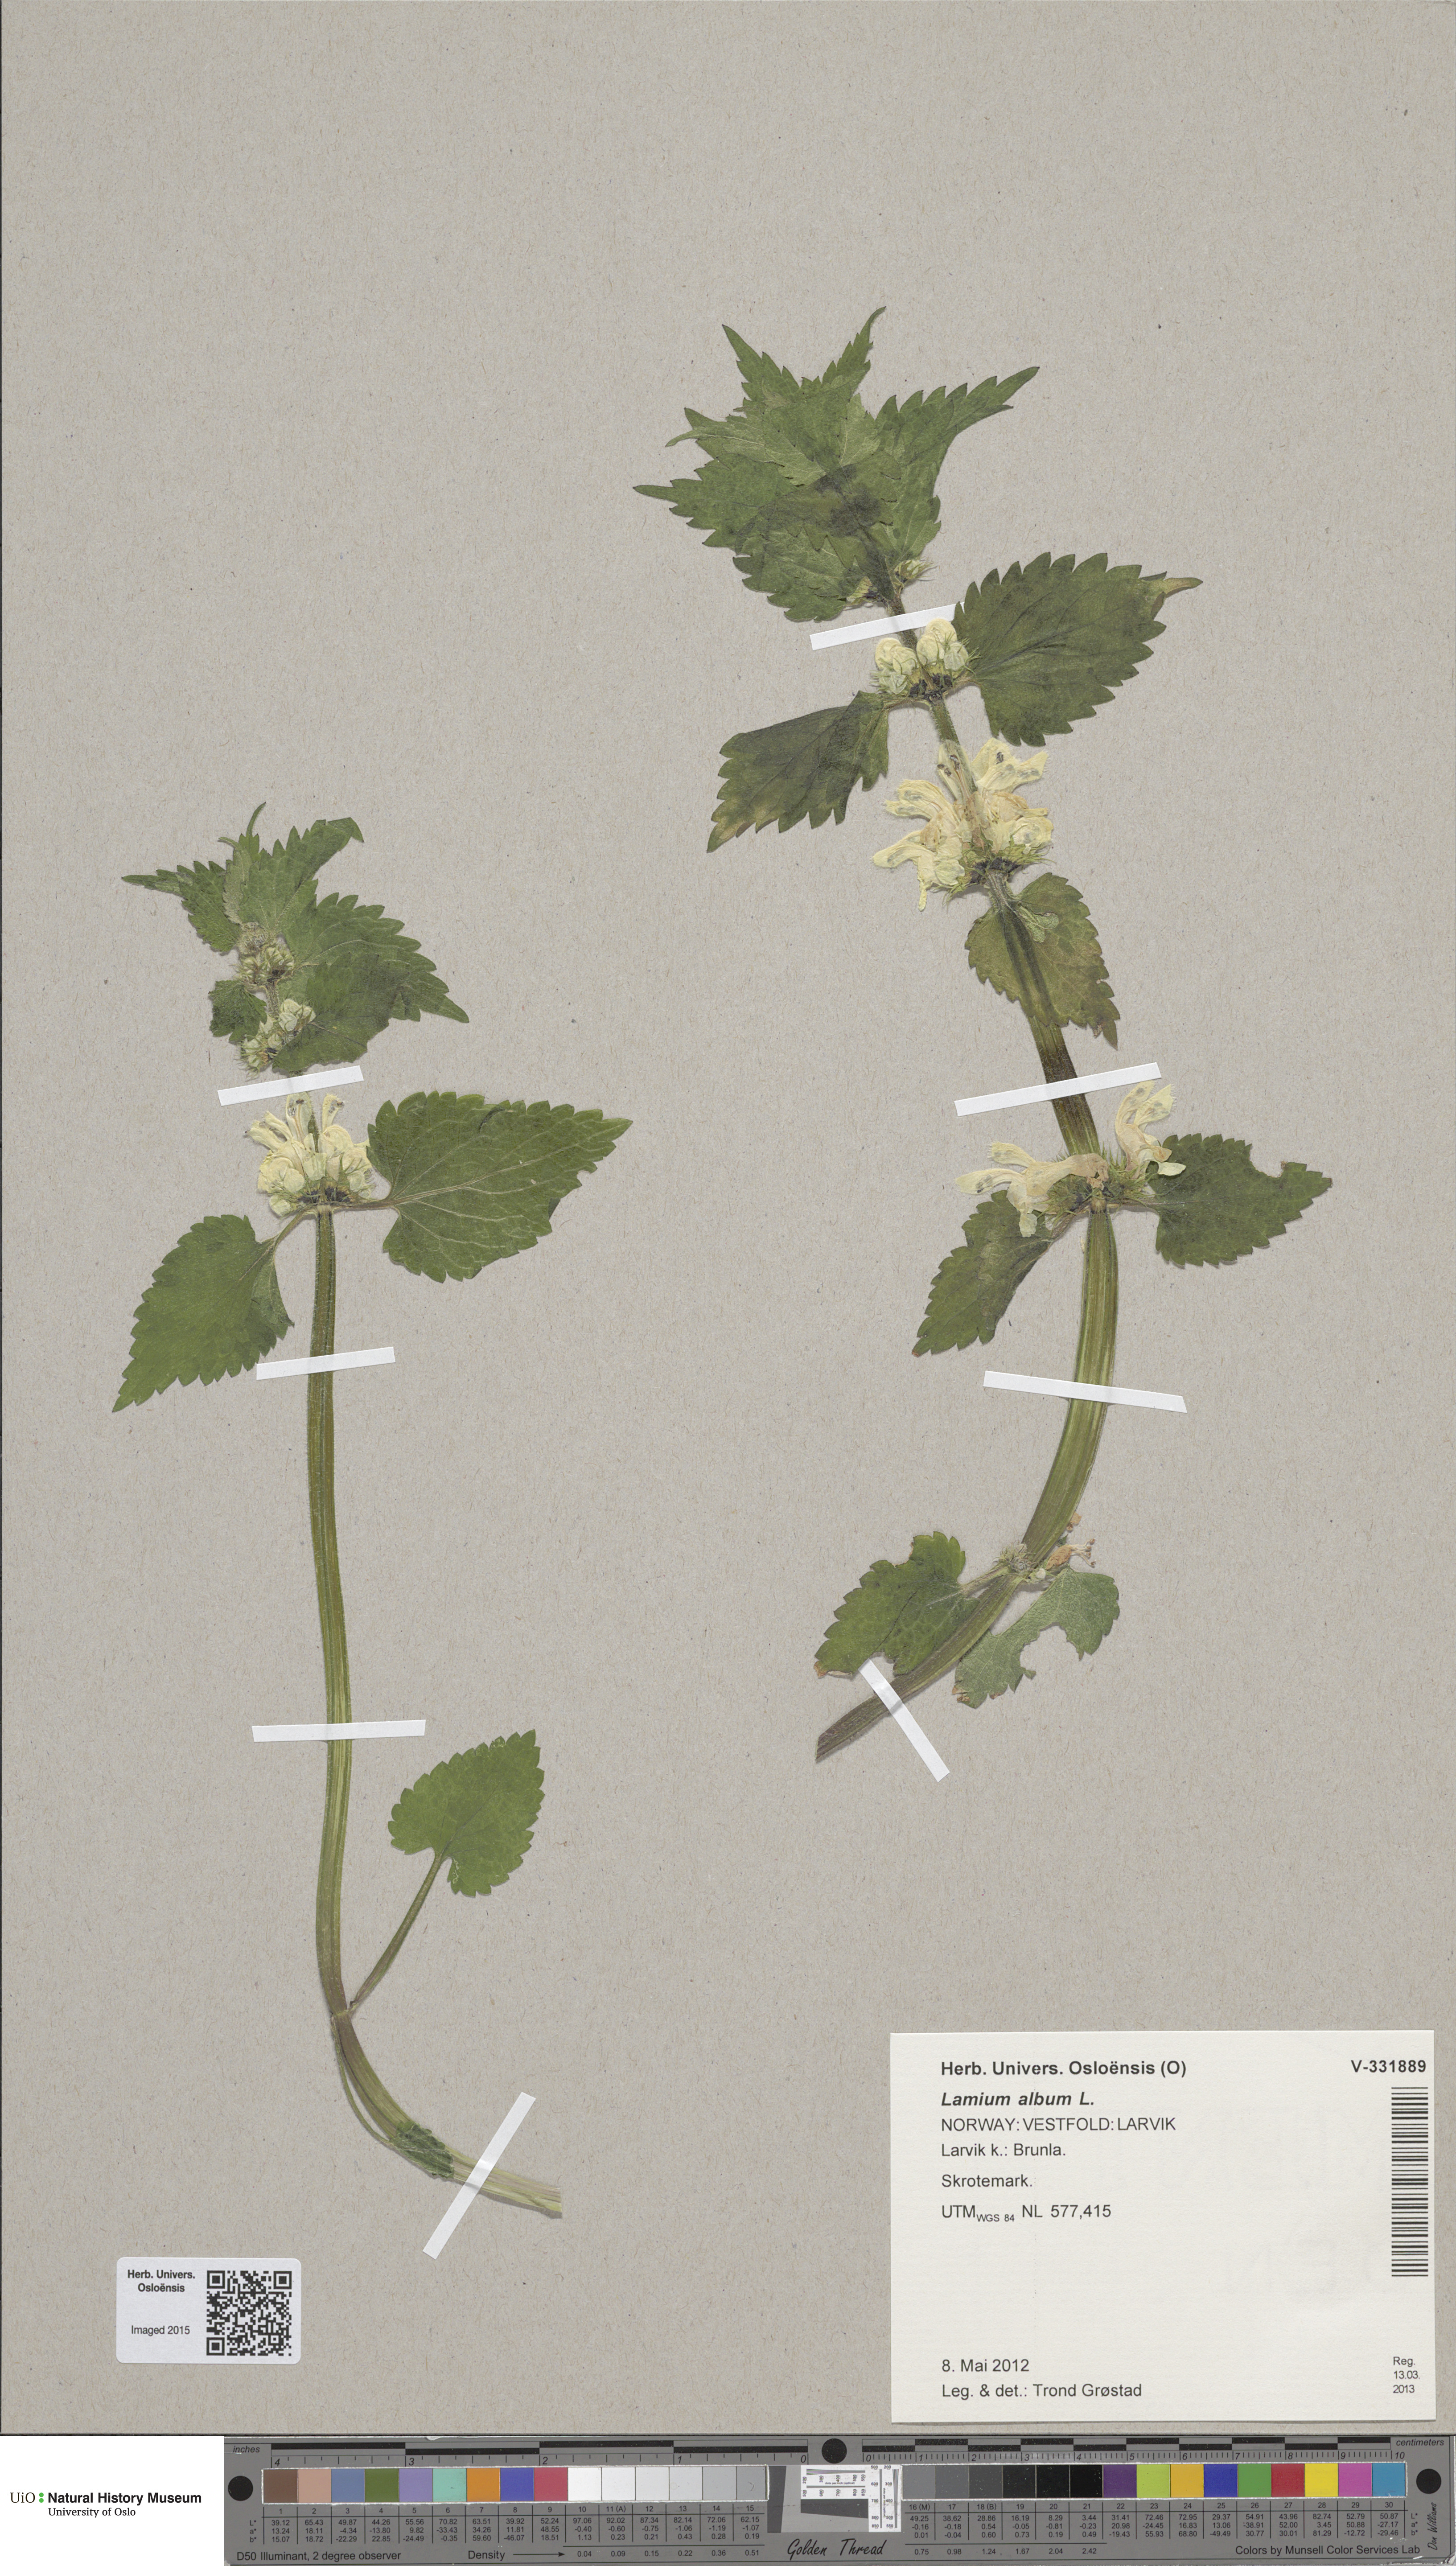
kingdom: Plantae
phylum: Tracheophyta
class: Magnoliopsida
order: Lamiales
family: Lamiaceae
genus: Lamium
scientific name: Lamium album
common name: White dead-nettle
